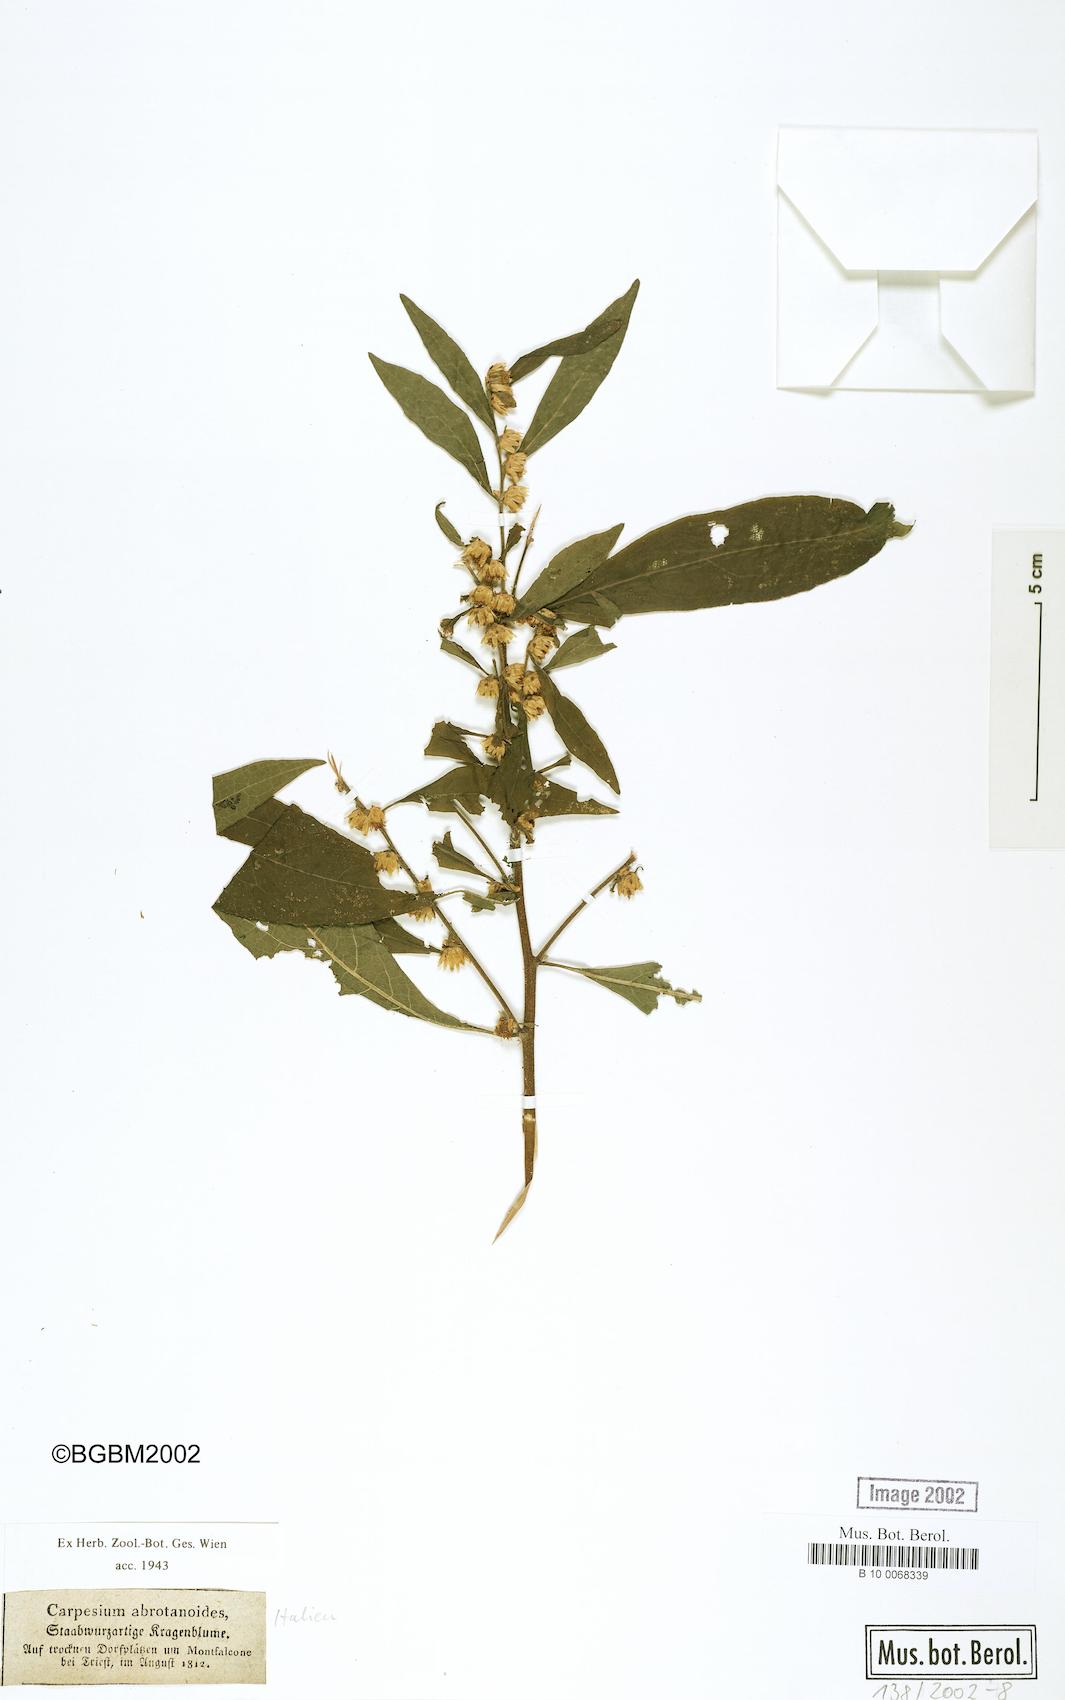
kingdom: Plantae
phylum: Tracheophyta
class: Magnoliopsida
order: Asterales
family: Asteraceae
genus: Carpesium
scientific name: Carpesium abrotanoides
